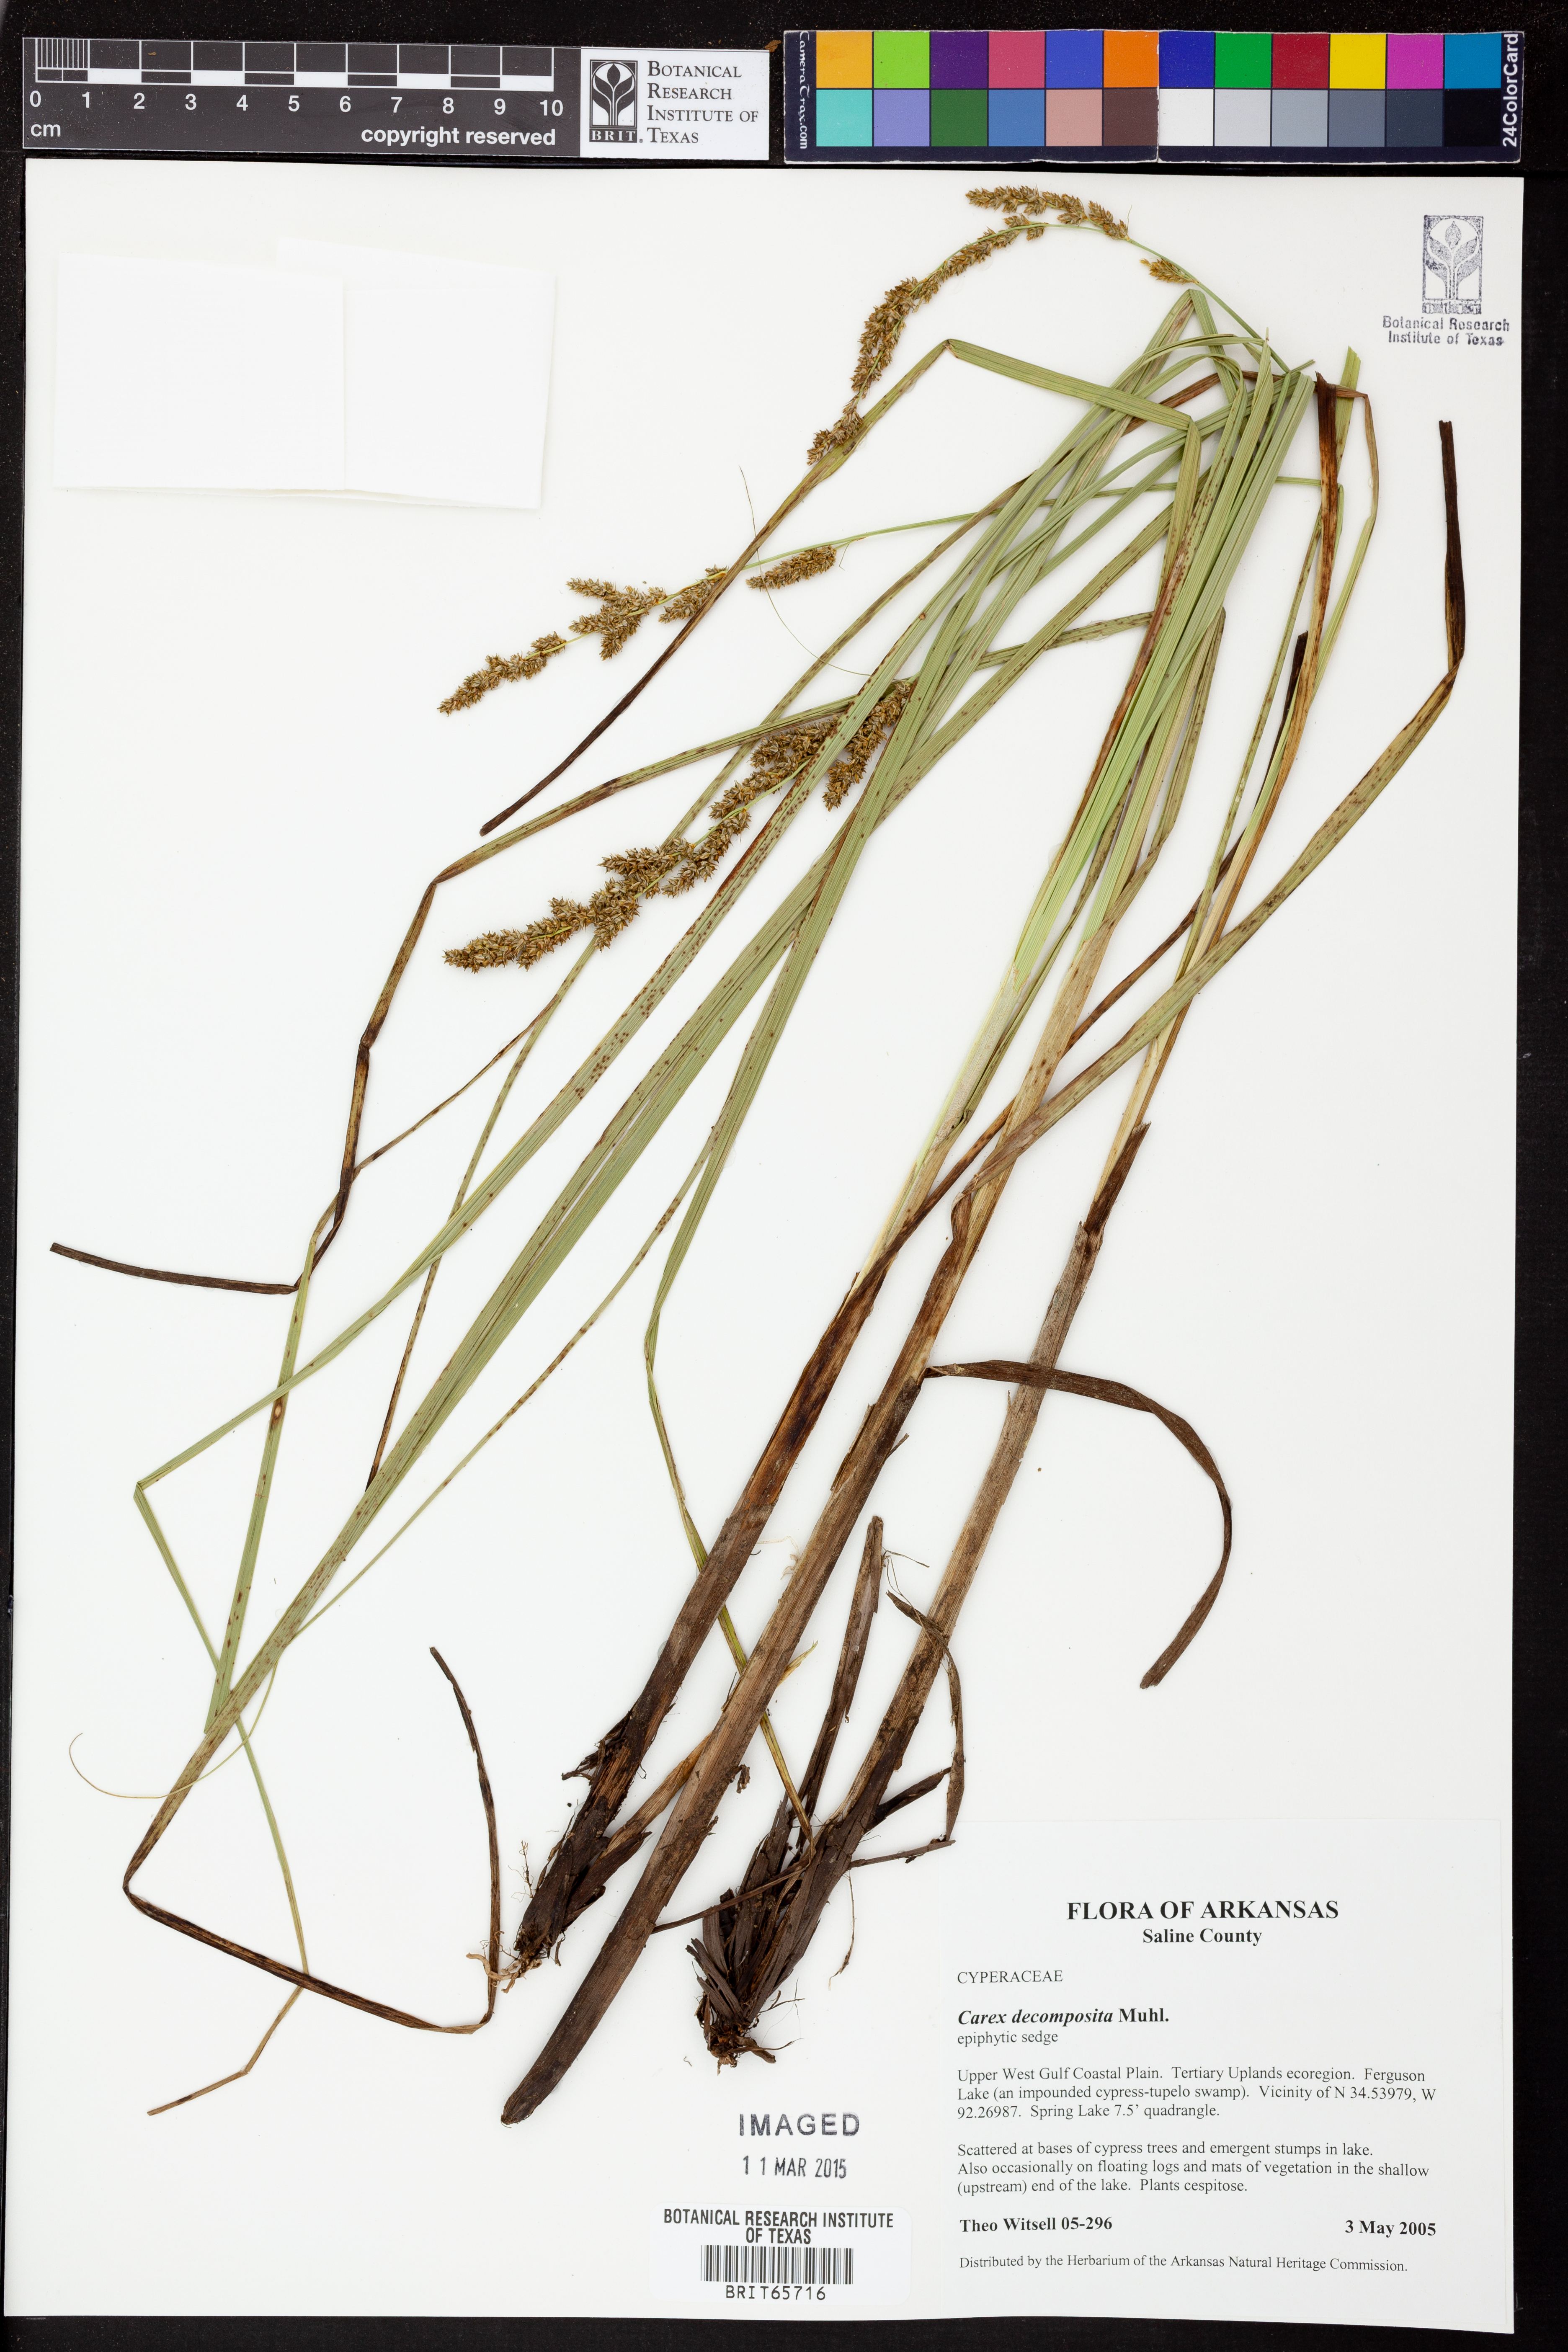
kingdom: Plantae
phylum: Tracheophyta
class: Liliopsida
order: Poales
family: Cyperaceae
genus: Carex
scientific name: Carex decomposita
